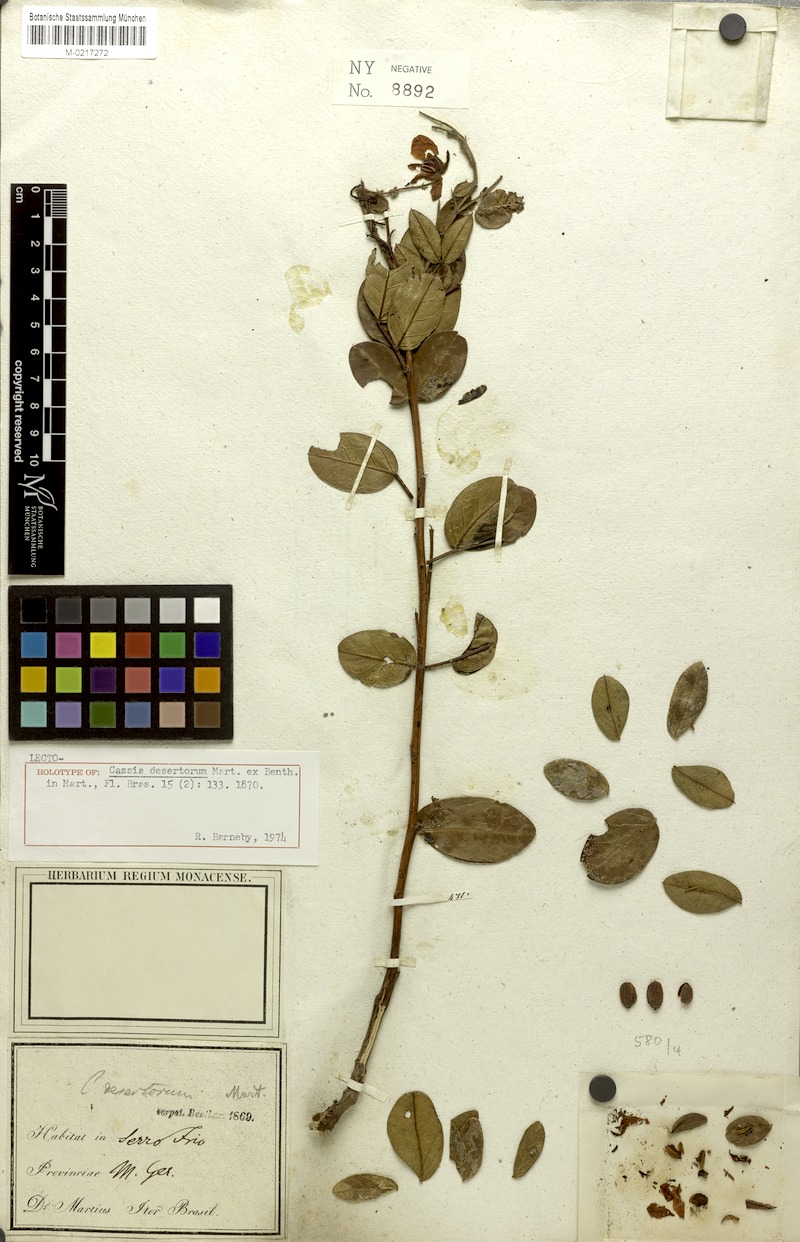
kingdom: Plantae
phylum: Tracheophyta
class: Magnoliopsida
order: Fabales
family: Fabaceae
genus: Chamaecrista
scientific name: Chamaecrista desertorum
